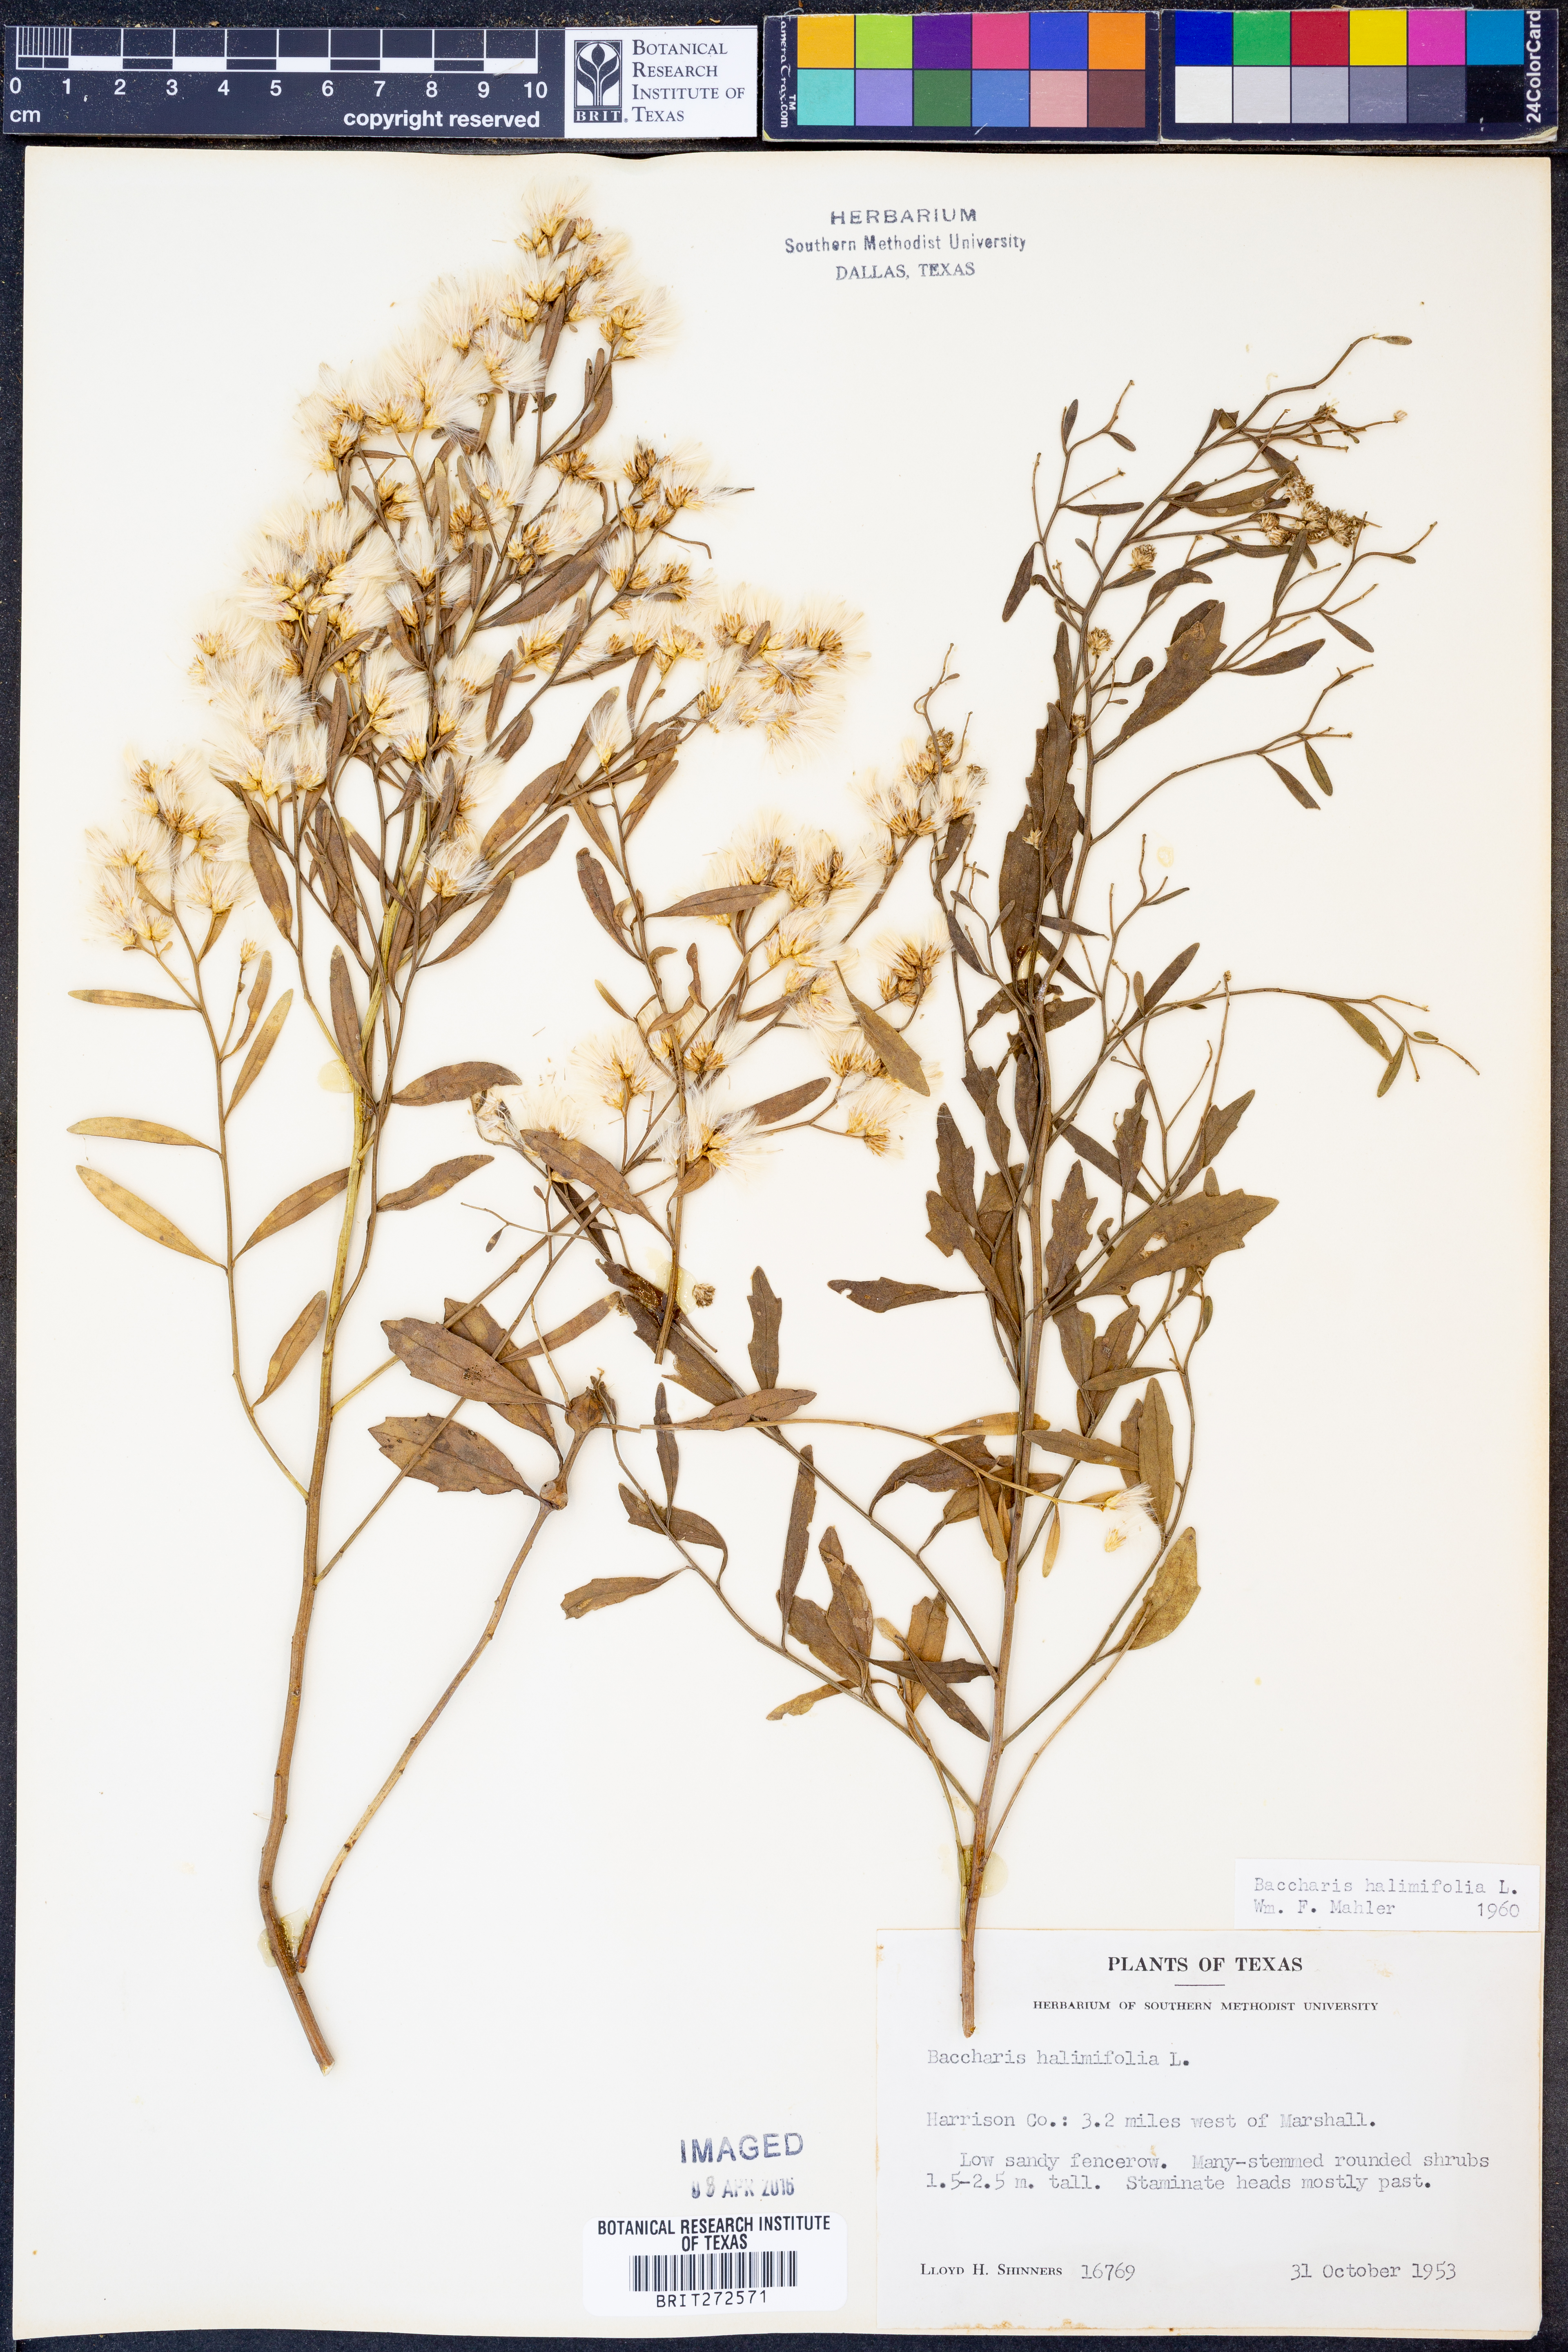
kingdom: Plantae
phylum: Tracheophyta
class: Magnoliopsida
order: Asterales
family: Asteraceae
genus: Nidorella
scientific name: Nidorella ivifolia
